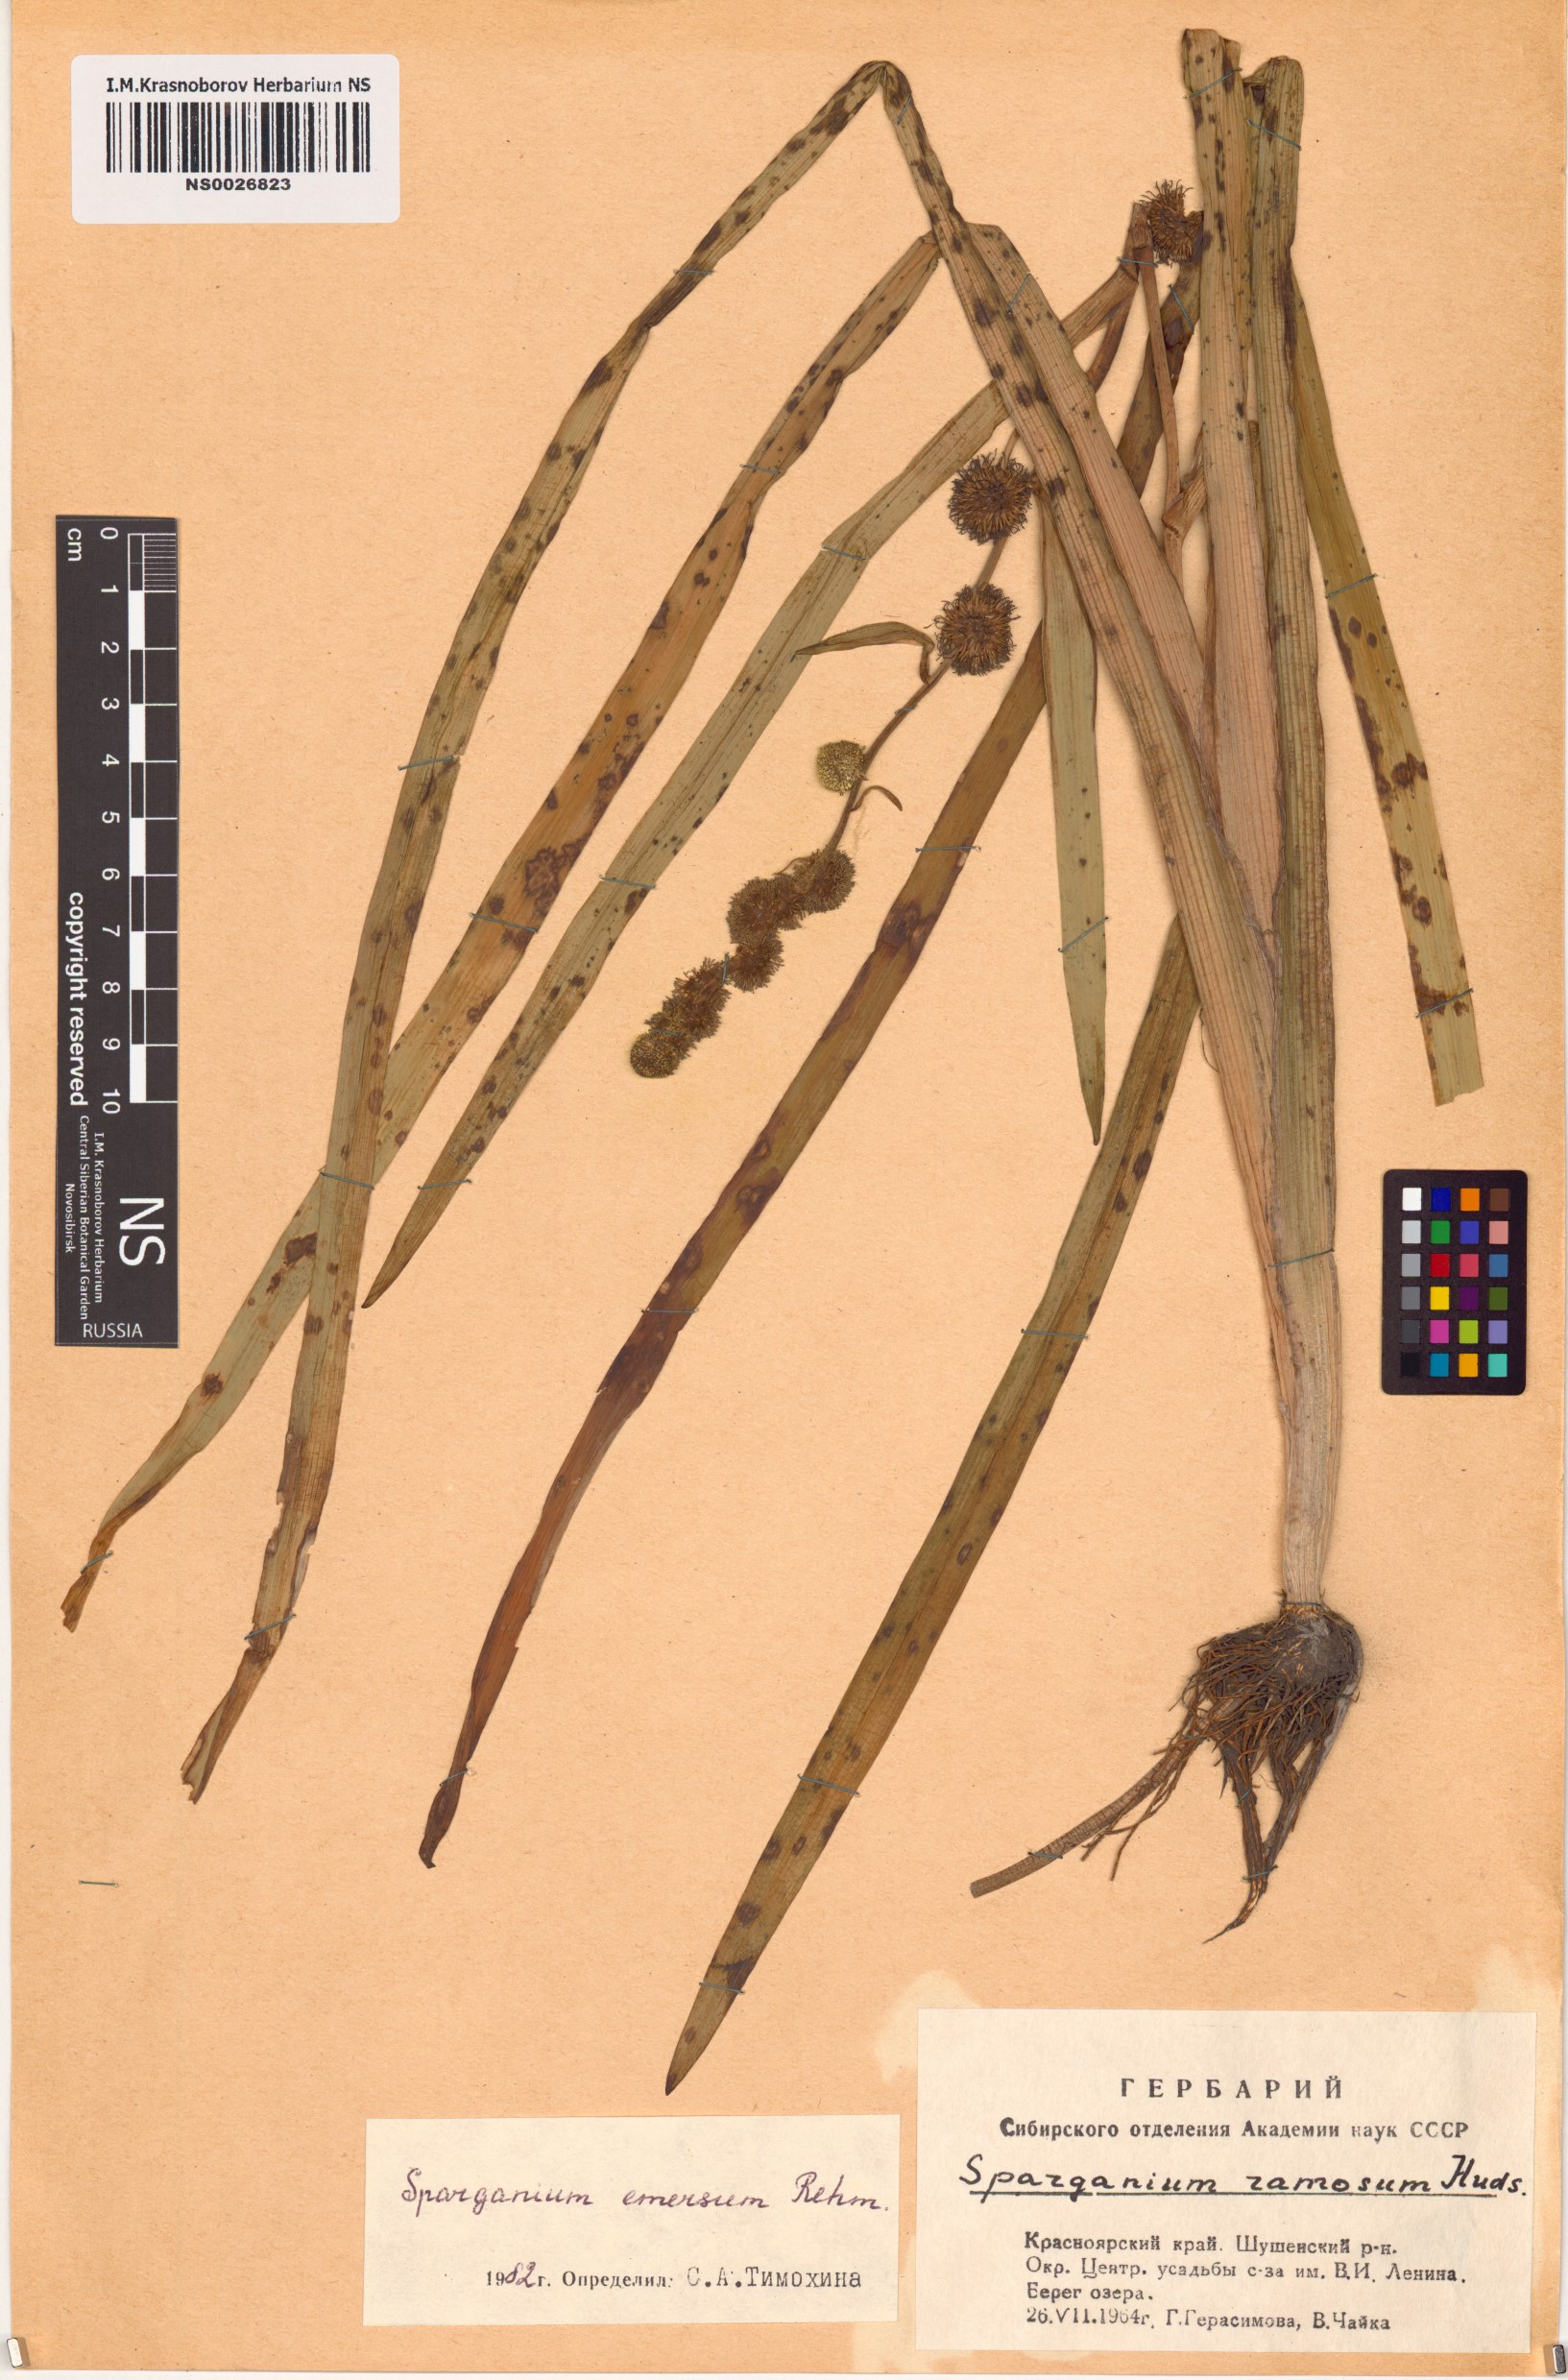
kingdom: Plantae
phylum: Tracheophyta
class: Liliopsida
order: Poales
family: Typhaceae
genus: Sparganium
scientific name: Sparganium emersum
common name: Unbranched bur-reed
